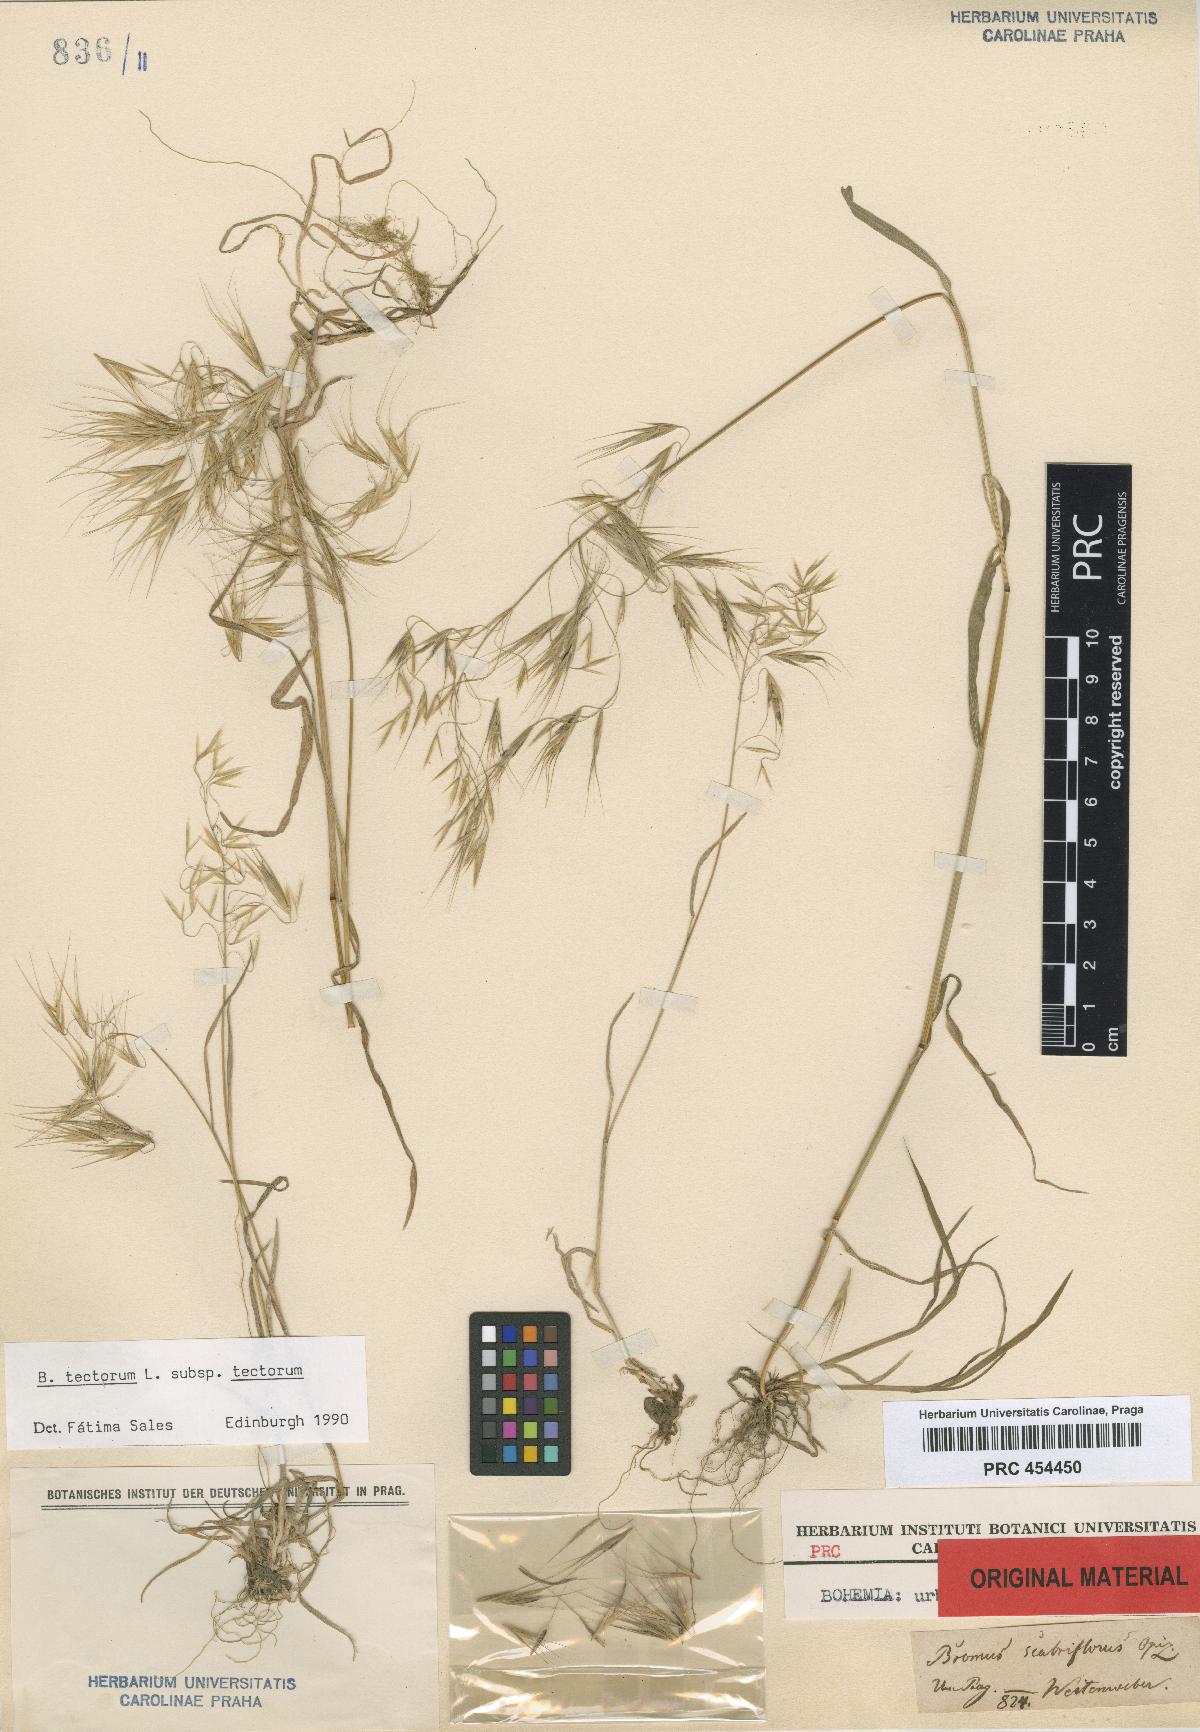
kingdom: Plantae
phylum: Tracheophyta
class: Liliopsida
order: Poales
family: Poaceae
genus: Bromus
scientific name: Bromus tectorum
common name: Cheatgrass
